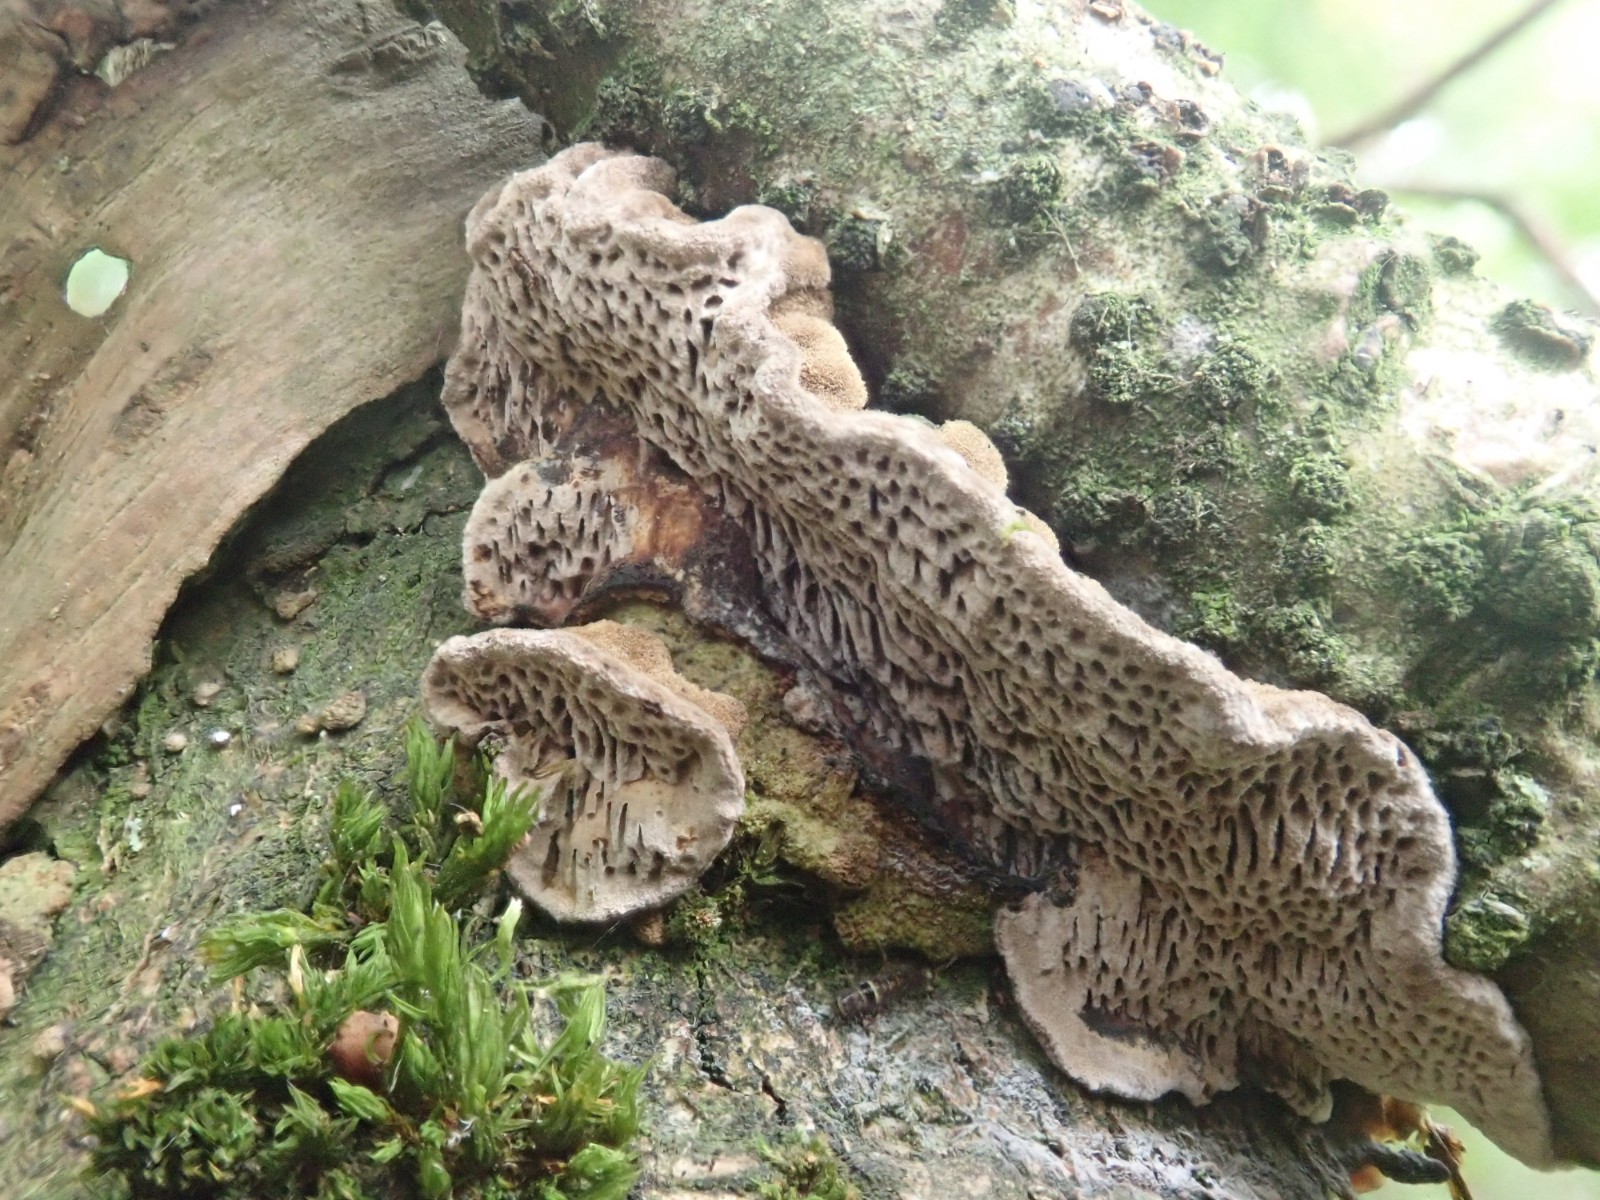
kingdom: Fungi
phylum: Basidiomycota
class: Agaricomycetes
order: Polyporales
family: Polyporaceae
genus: Podofomes
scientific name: Podofomes mollis
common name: blød begporesvamp
